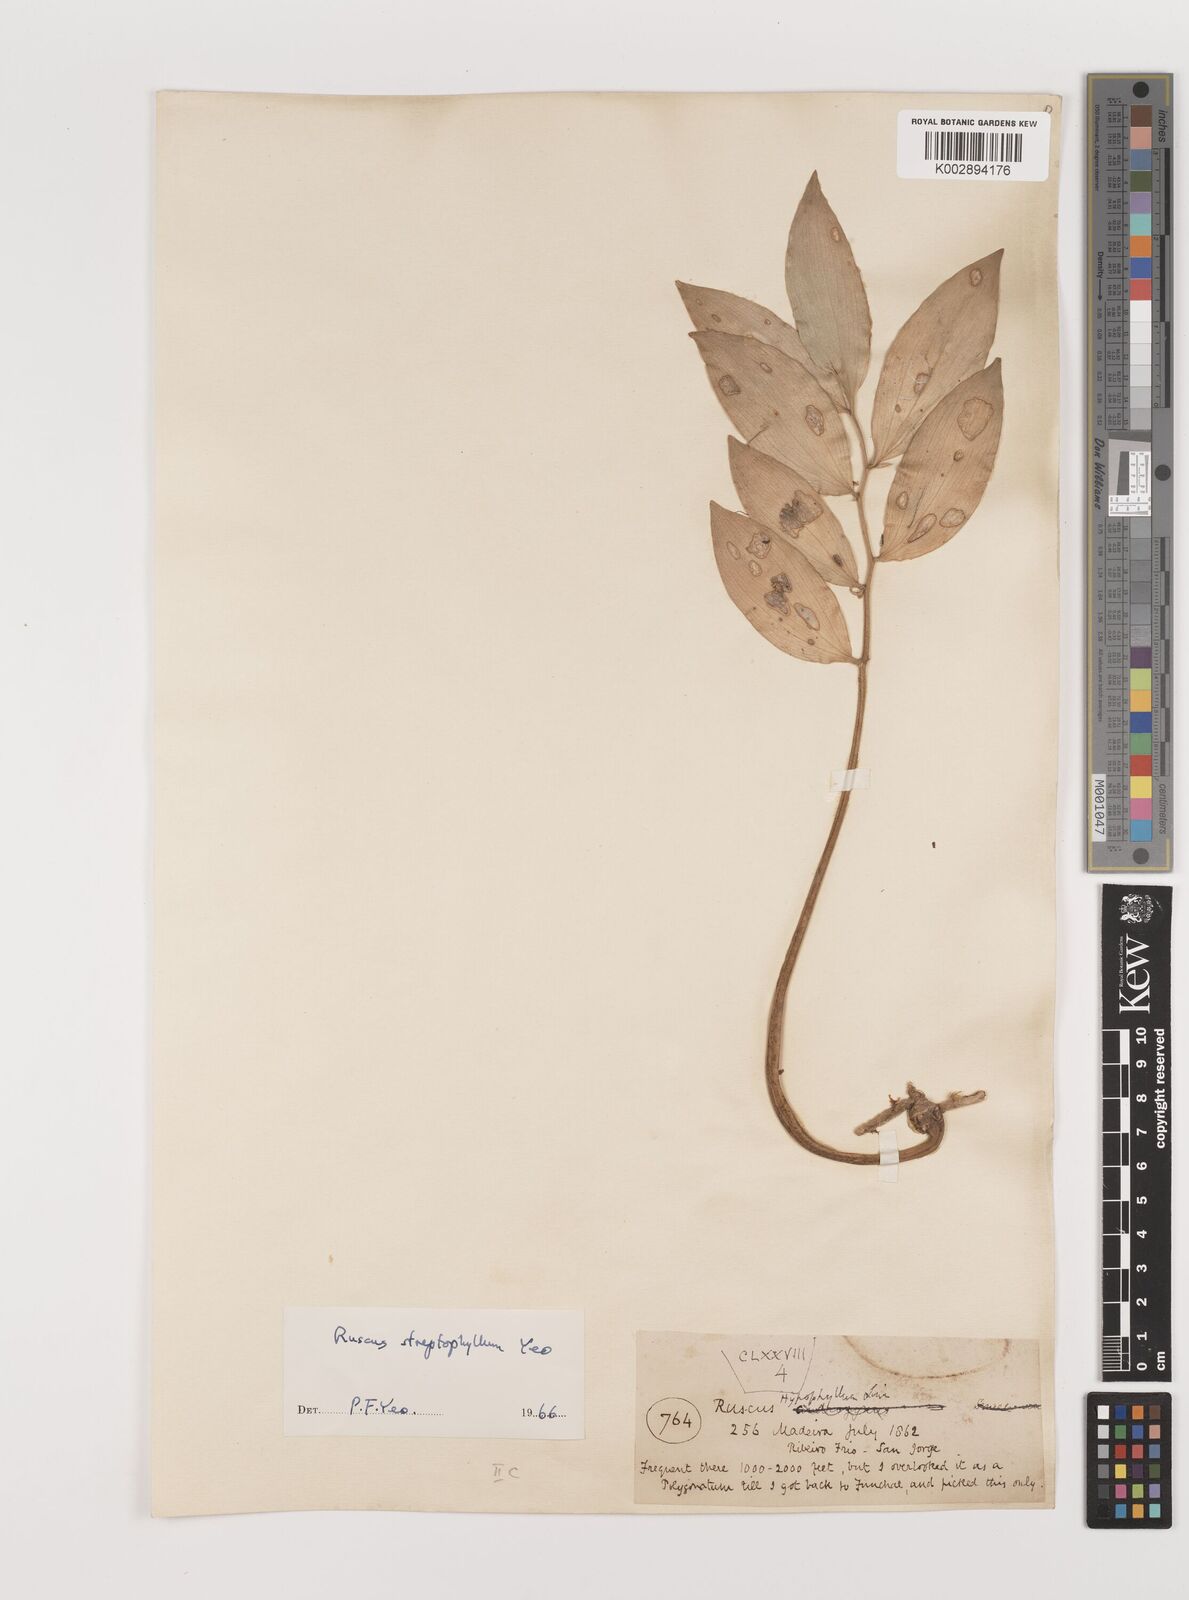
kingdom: Plantae
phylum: Tracheophyta
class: Liliopsida
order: Asparagales
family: Asparagaceae
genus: Ruscus
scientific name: Ruscus hypophyllum
